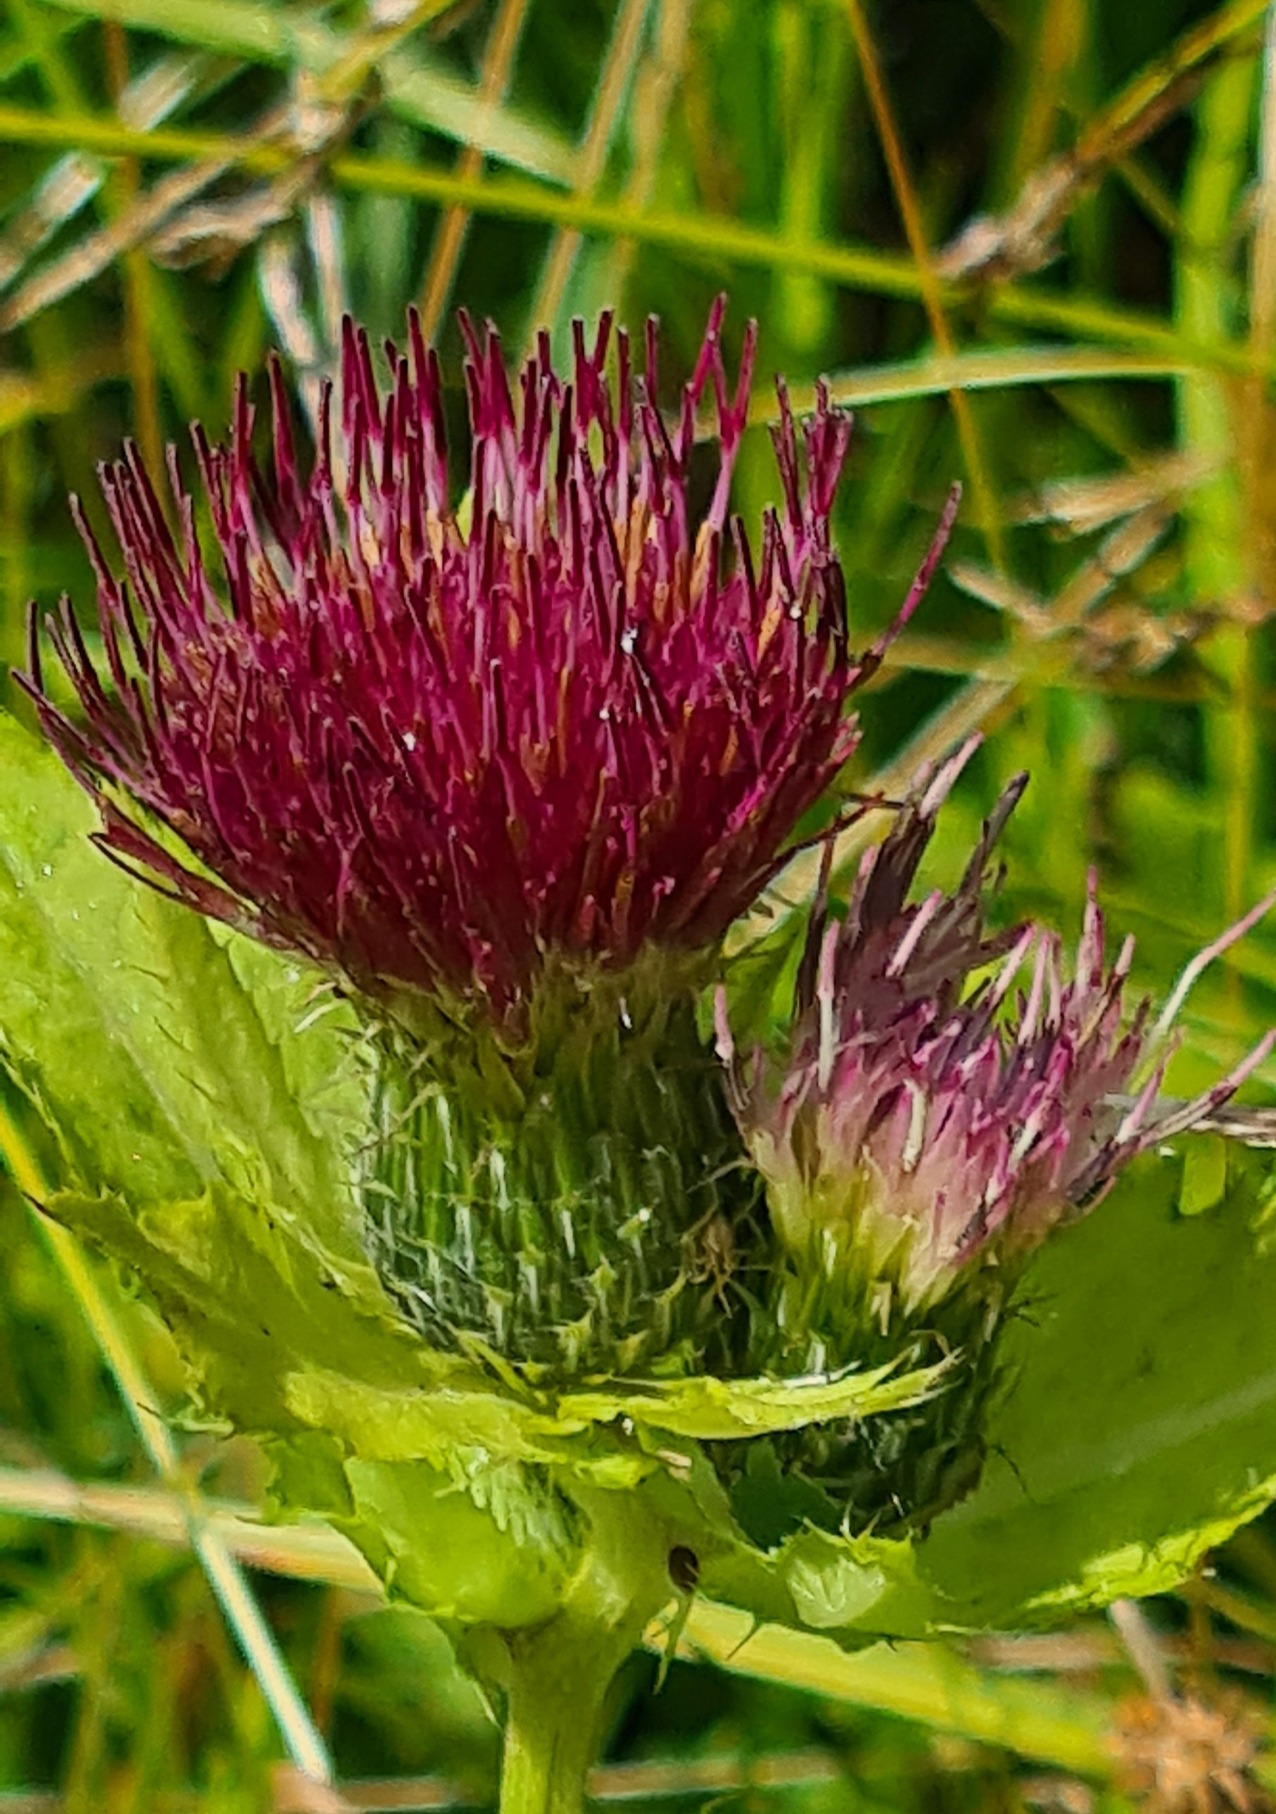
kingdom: Plantae
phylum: Tracheophyta
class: Magnoliopsida
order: Asterales
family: Asteraceae
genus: Cirsium
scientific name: Cirsium oleraceum
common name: Rød kål-tidsel
